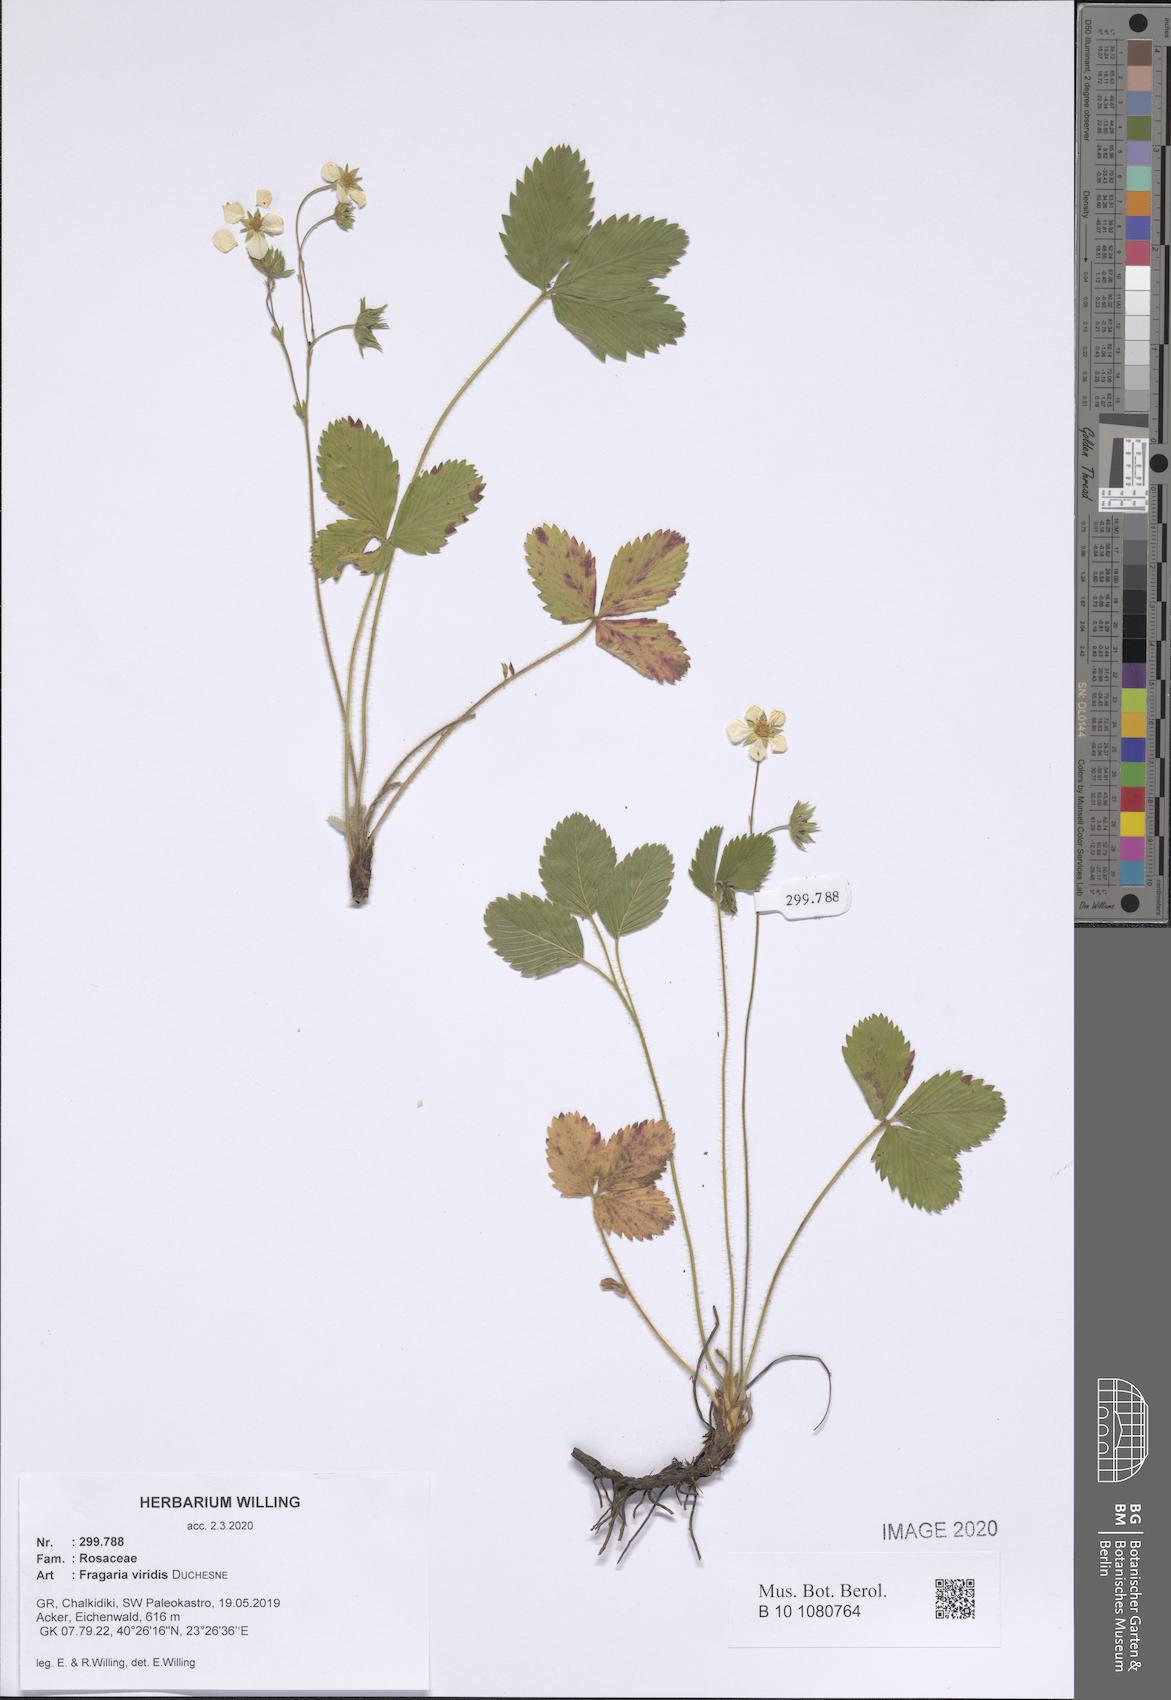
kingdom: Plantae
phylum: Tracheophyta
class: Magnoliopsida
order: Rosales
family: Rosaceae
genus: Fragaria
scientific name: Fragaria viridis
